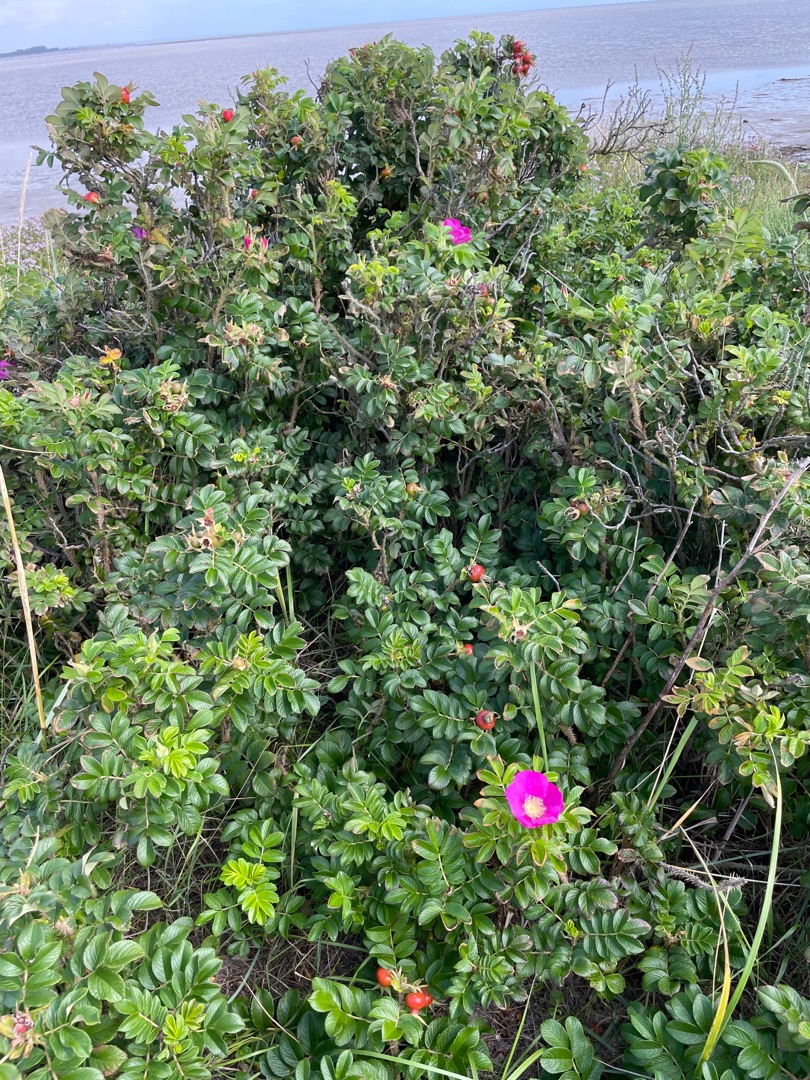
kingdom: Plantae
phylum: Tracheophyta
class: Magnoliopsida
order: Rosales
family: Rosaceae
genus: Rosa
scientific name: Rosa rugosa
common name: Rynket rose
